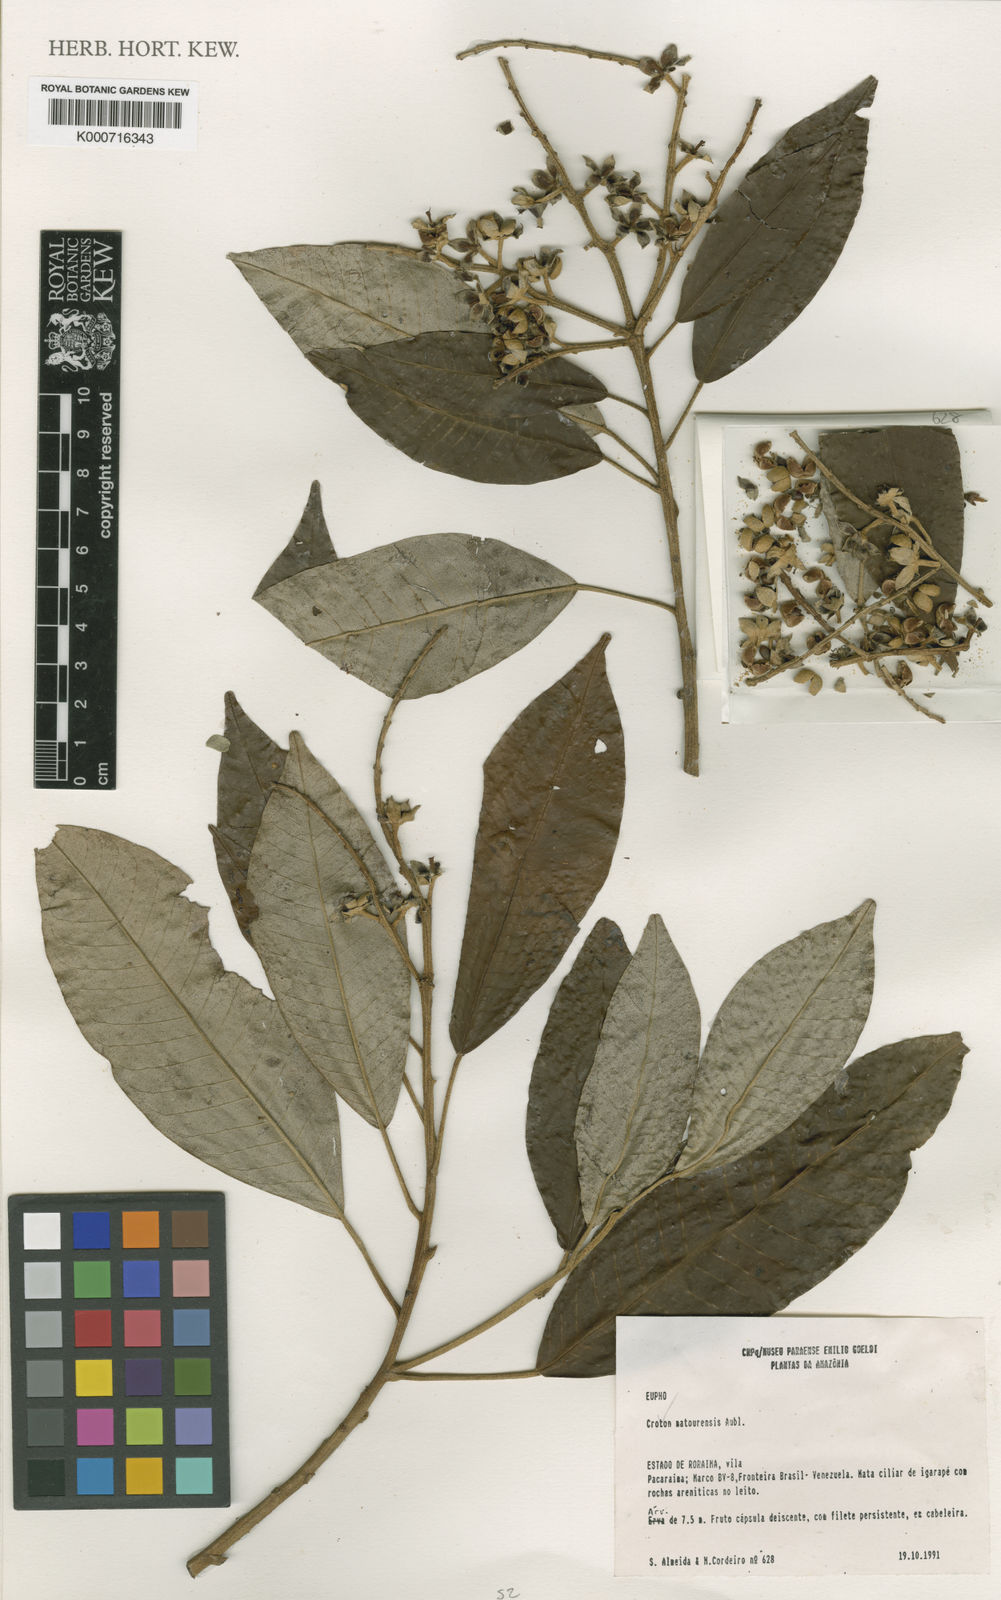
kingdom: Plantae
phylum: Tracheophyta
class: Magnoliopsida
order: Malpighiales
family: Euphorbiaceae
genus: Croton
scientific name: Croton matourensis
